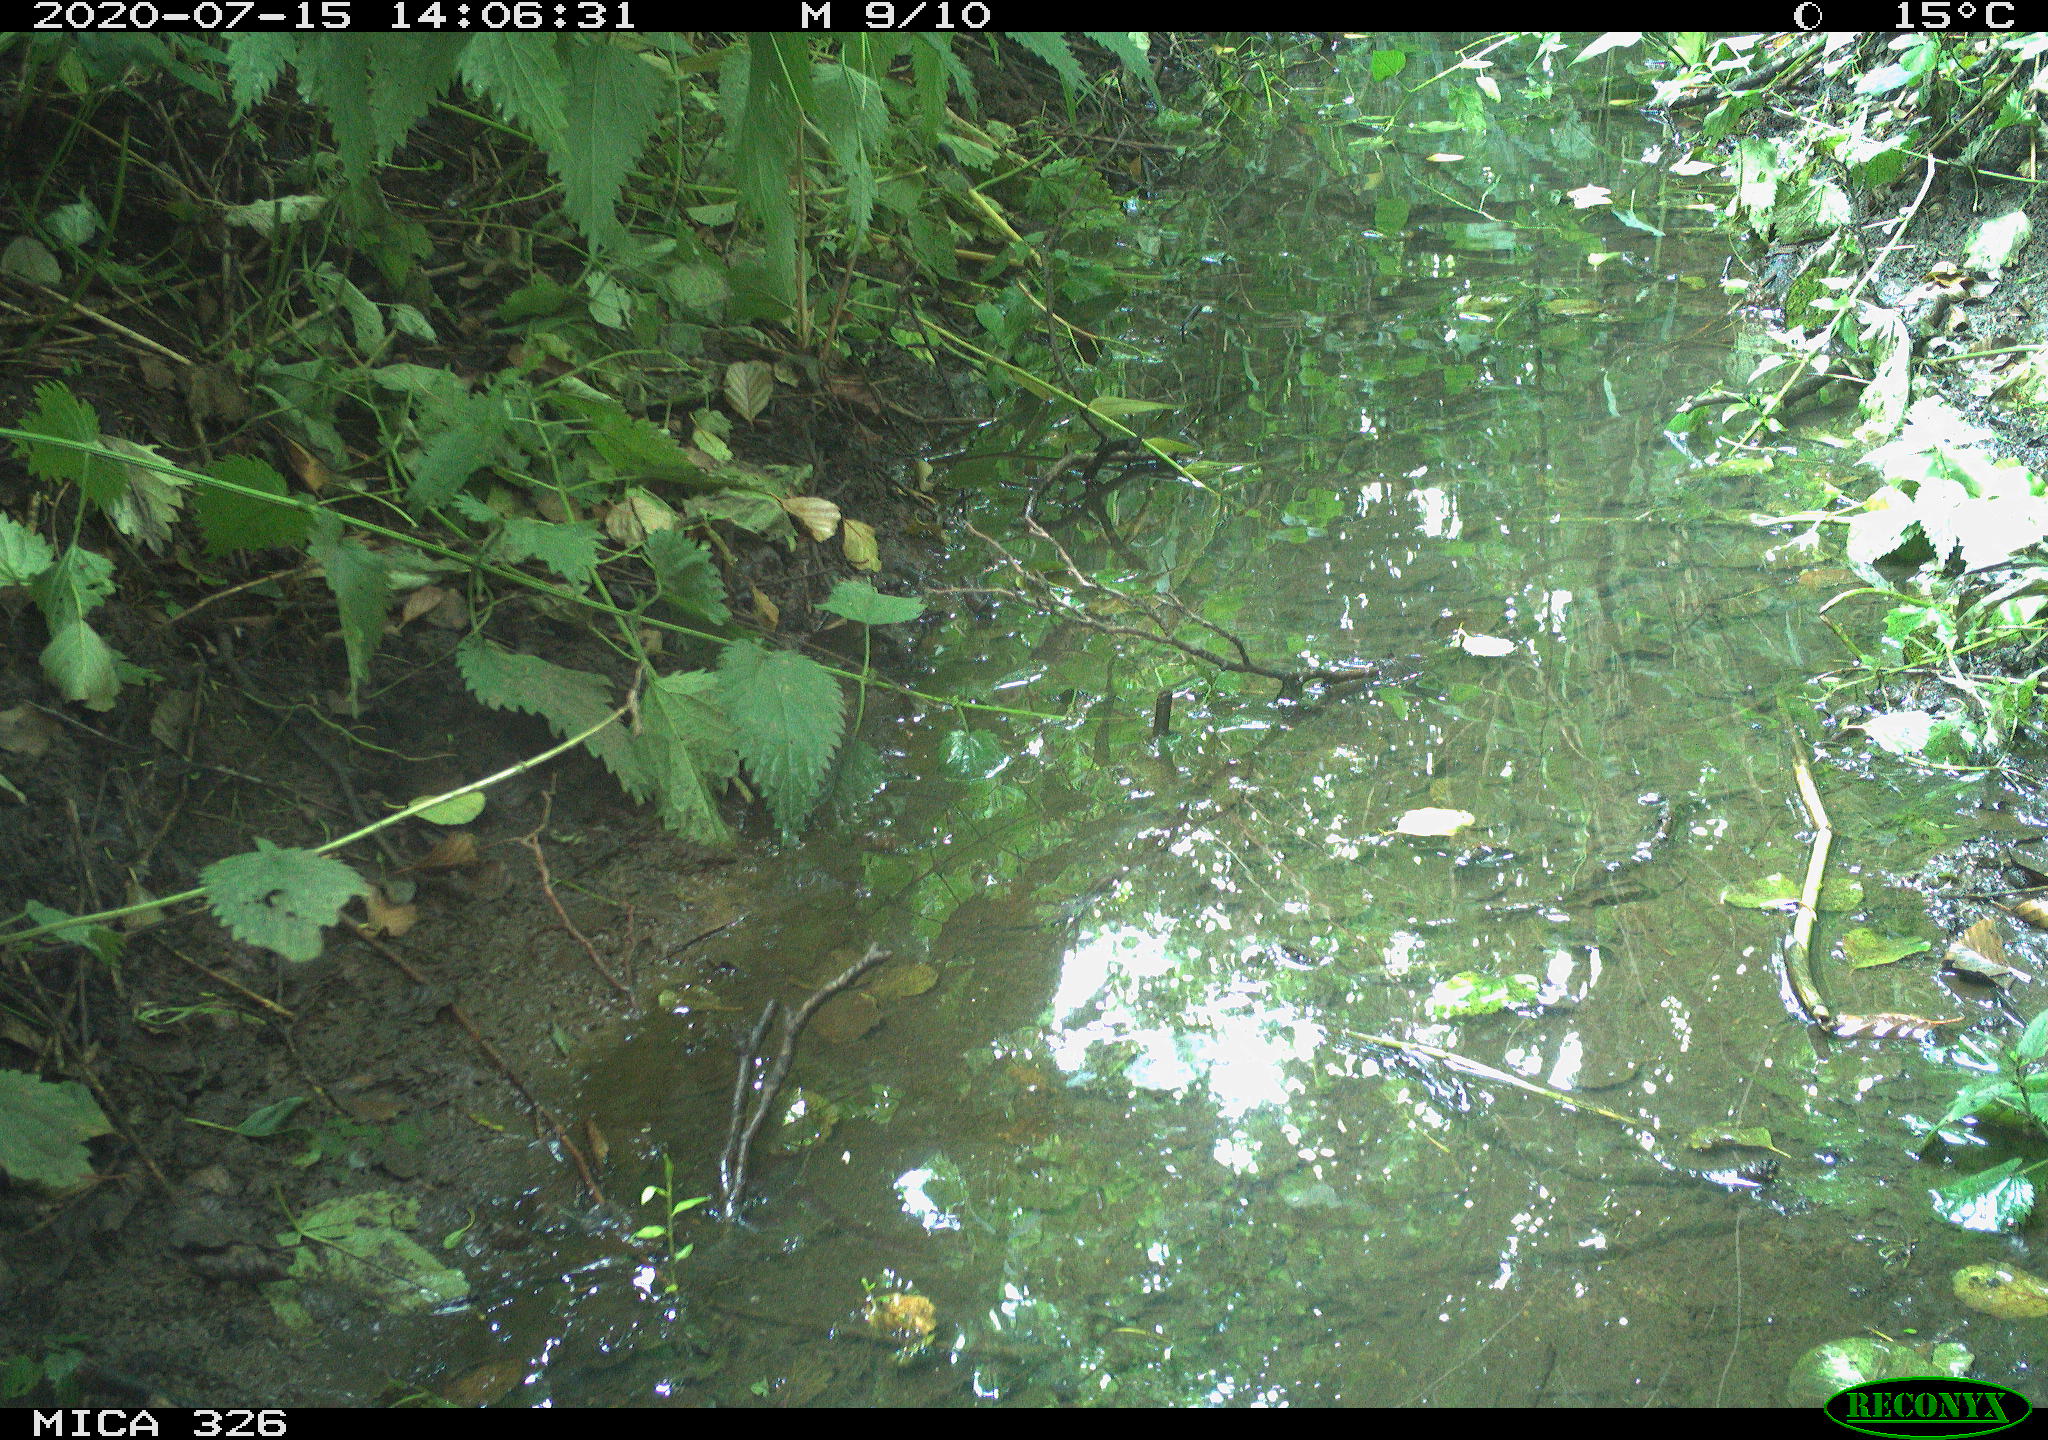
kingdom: Animalia
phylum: Chordata
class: Aves
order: Passeriformes
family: Muscicapidae
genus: Erithacus
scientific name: Erithacus rubecula
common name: European robin
